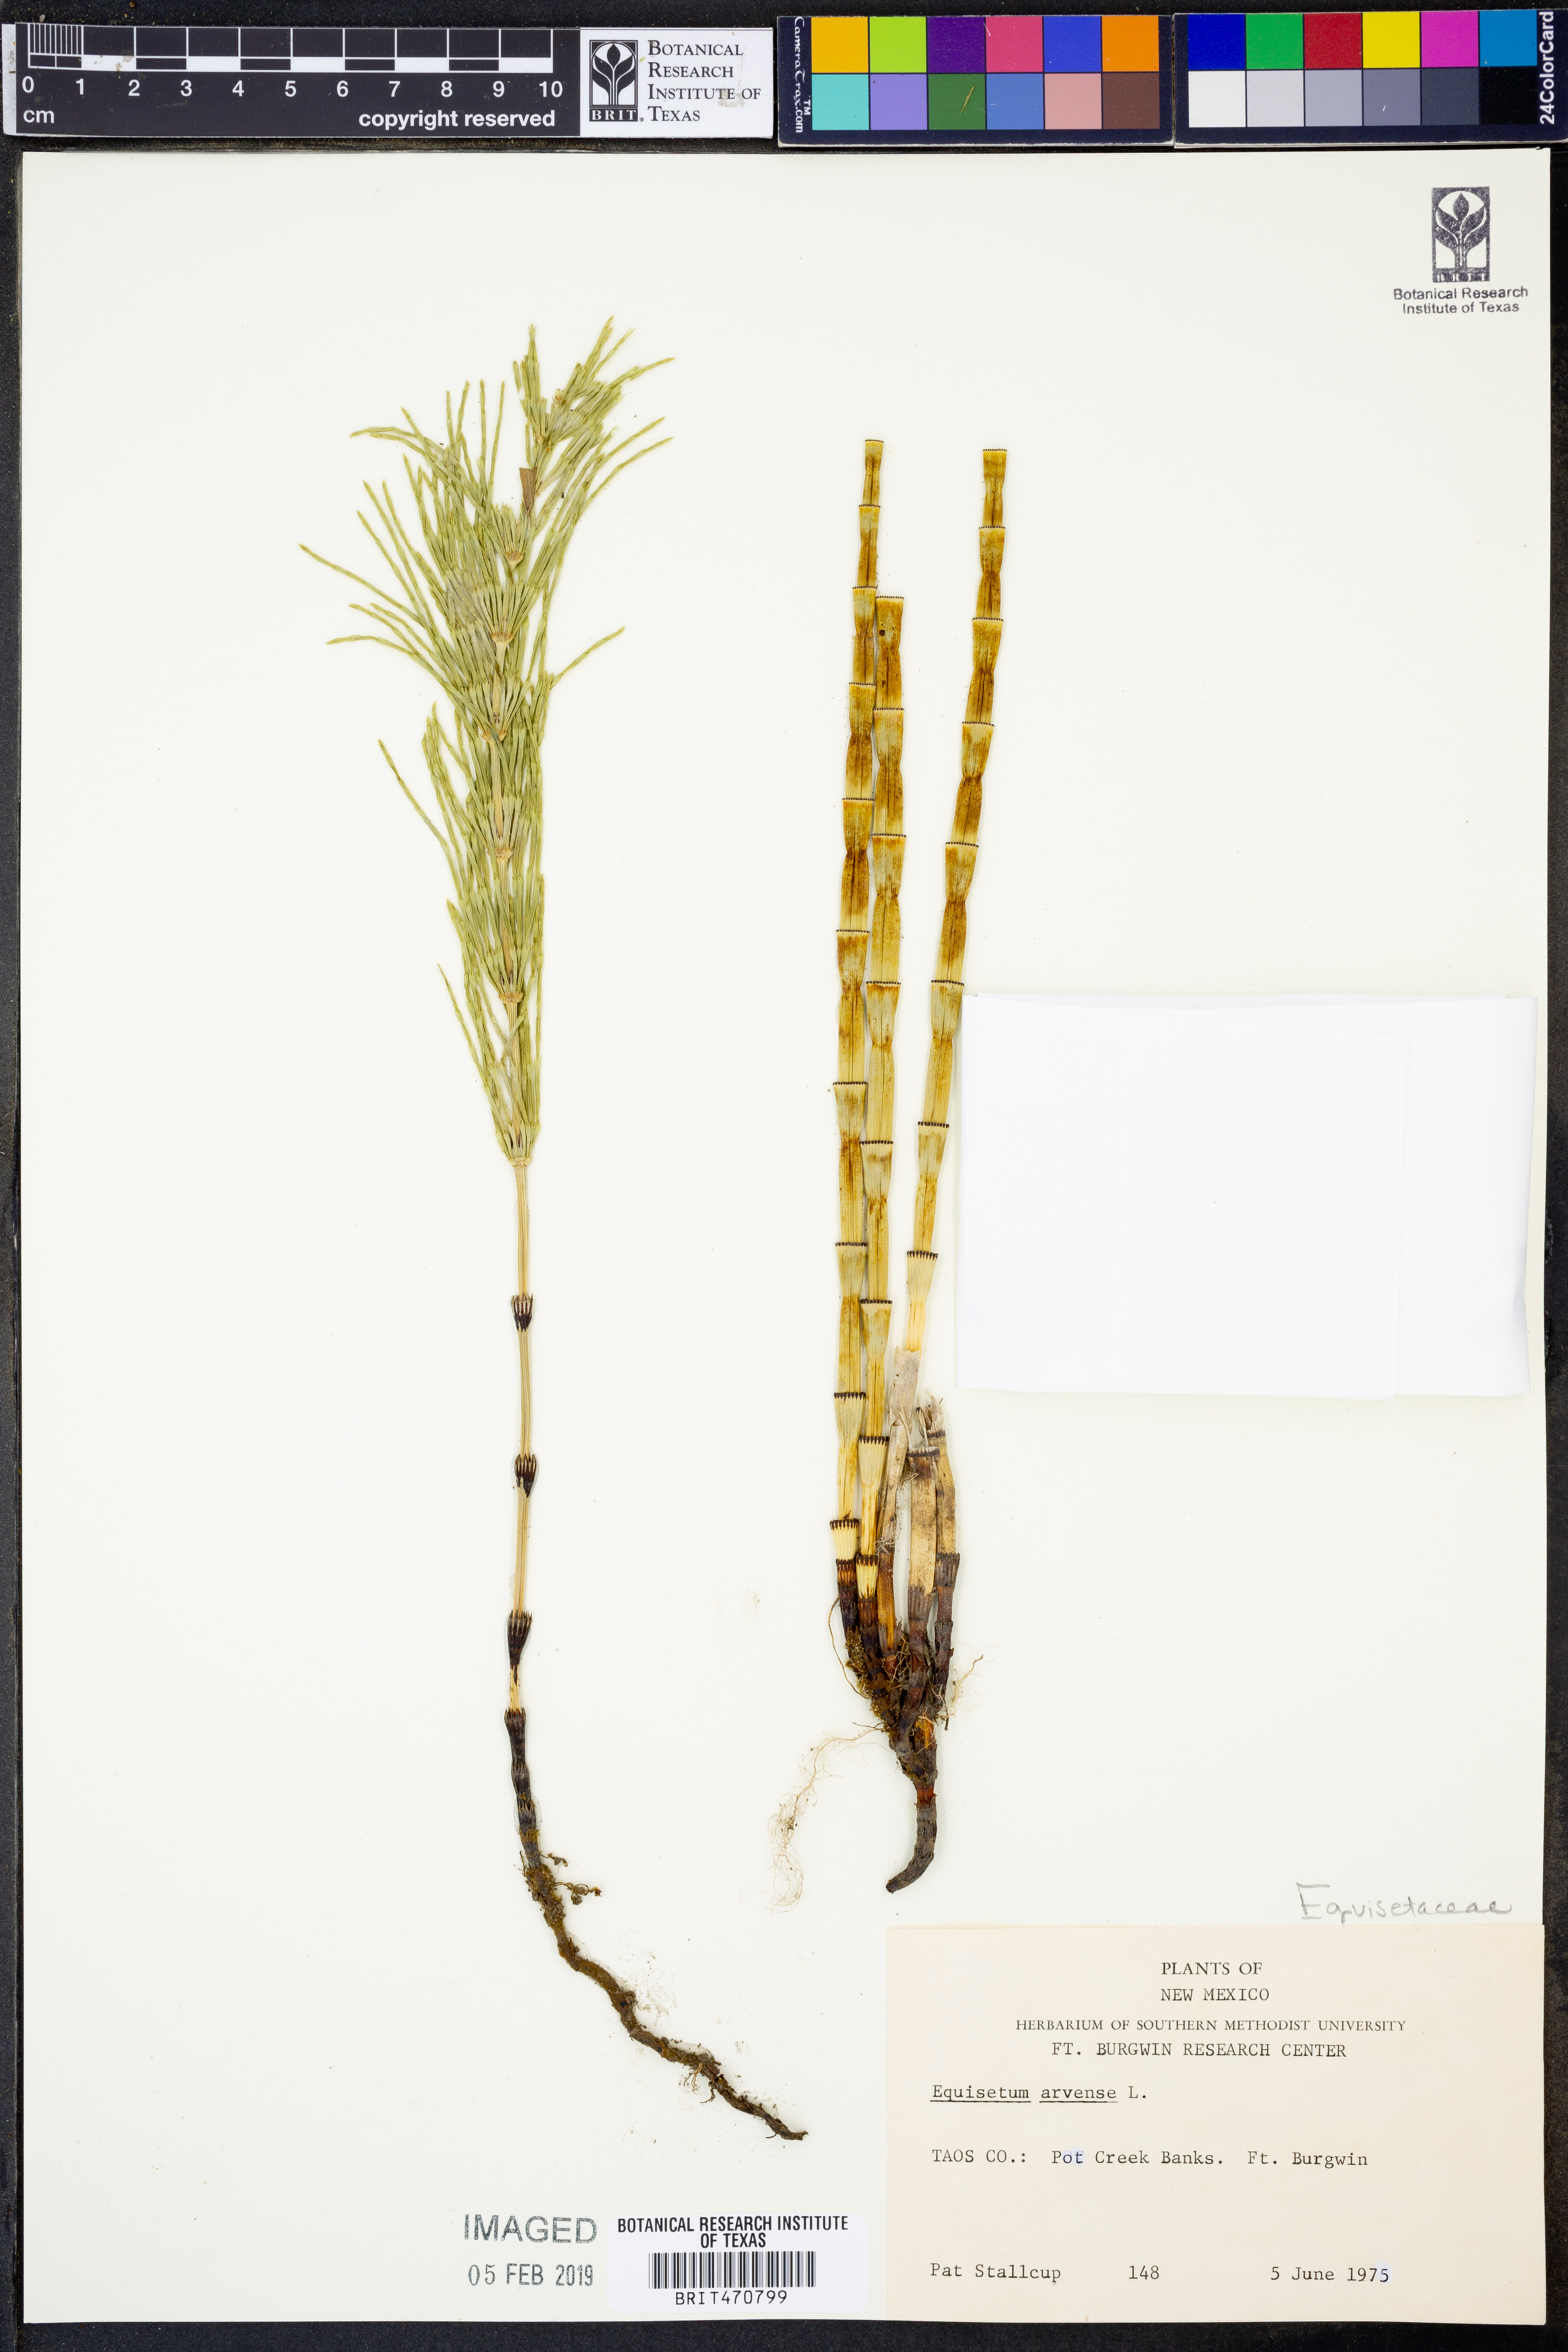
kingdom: Plantae
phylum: Tracheophyta
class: Polypodiopsida
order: Equisetales
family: Equisetaceae
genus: Equisetum
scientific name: Equisetum arvense
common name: Field horsetail
